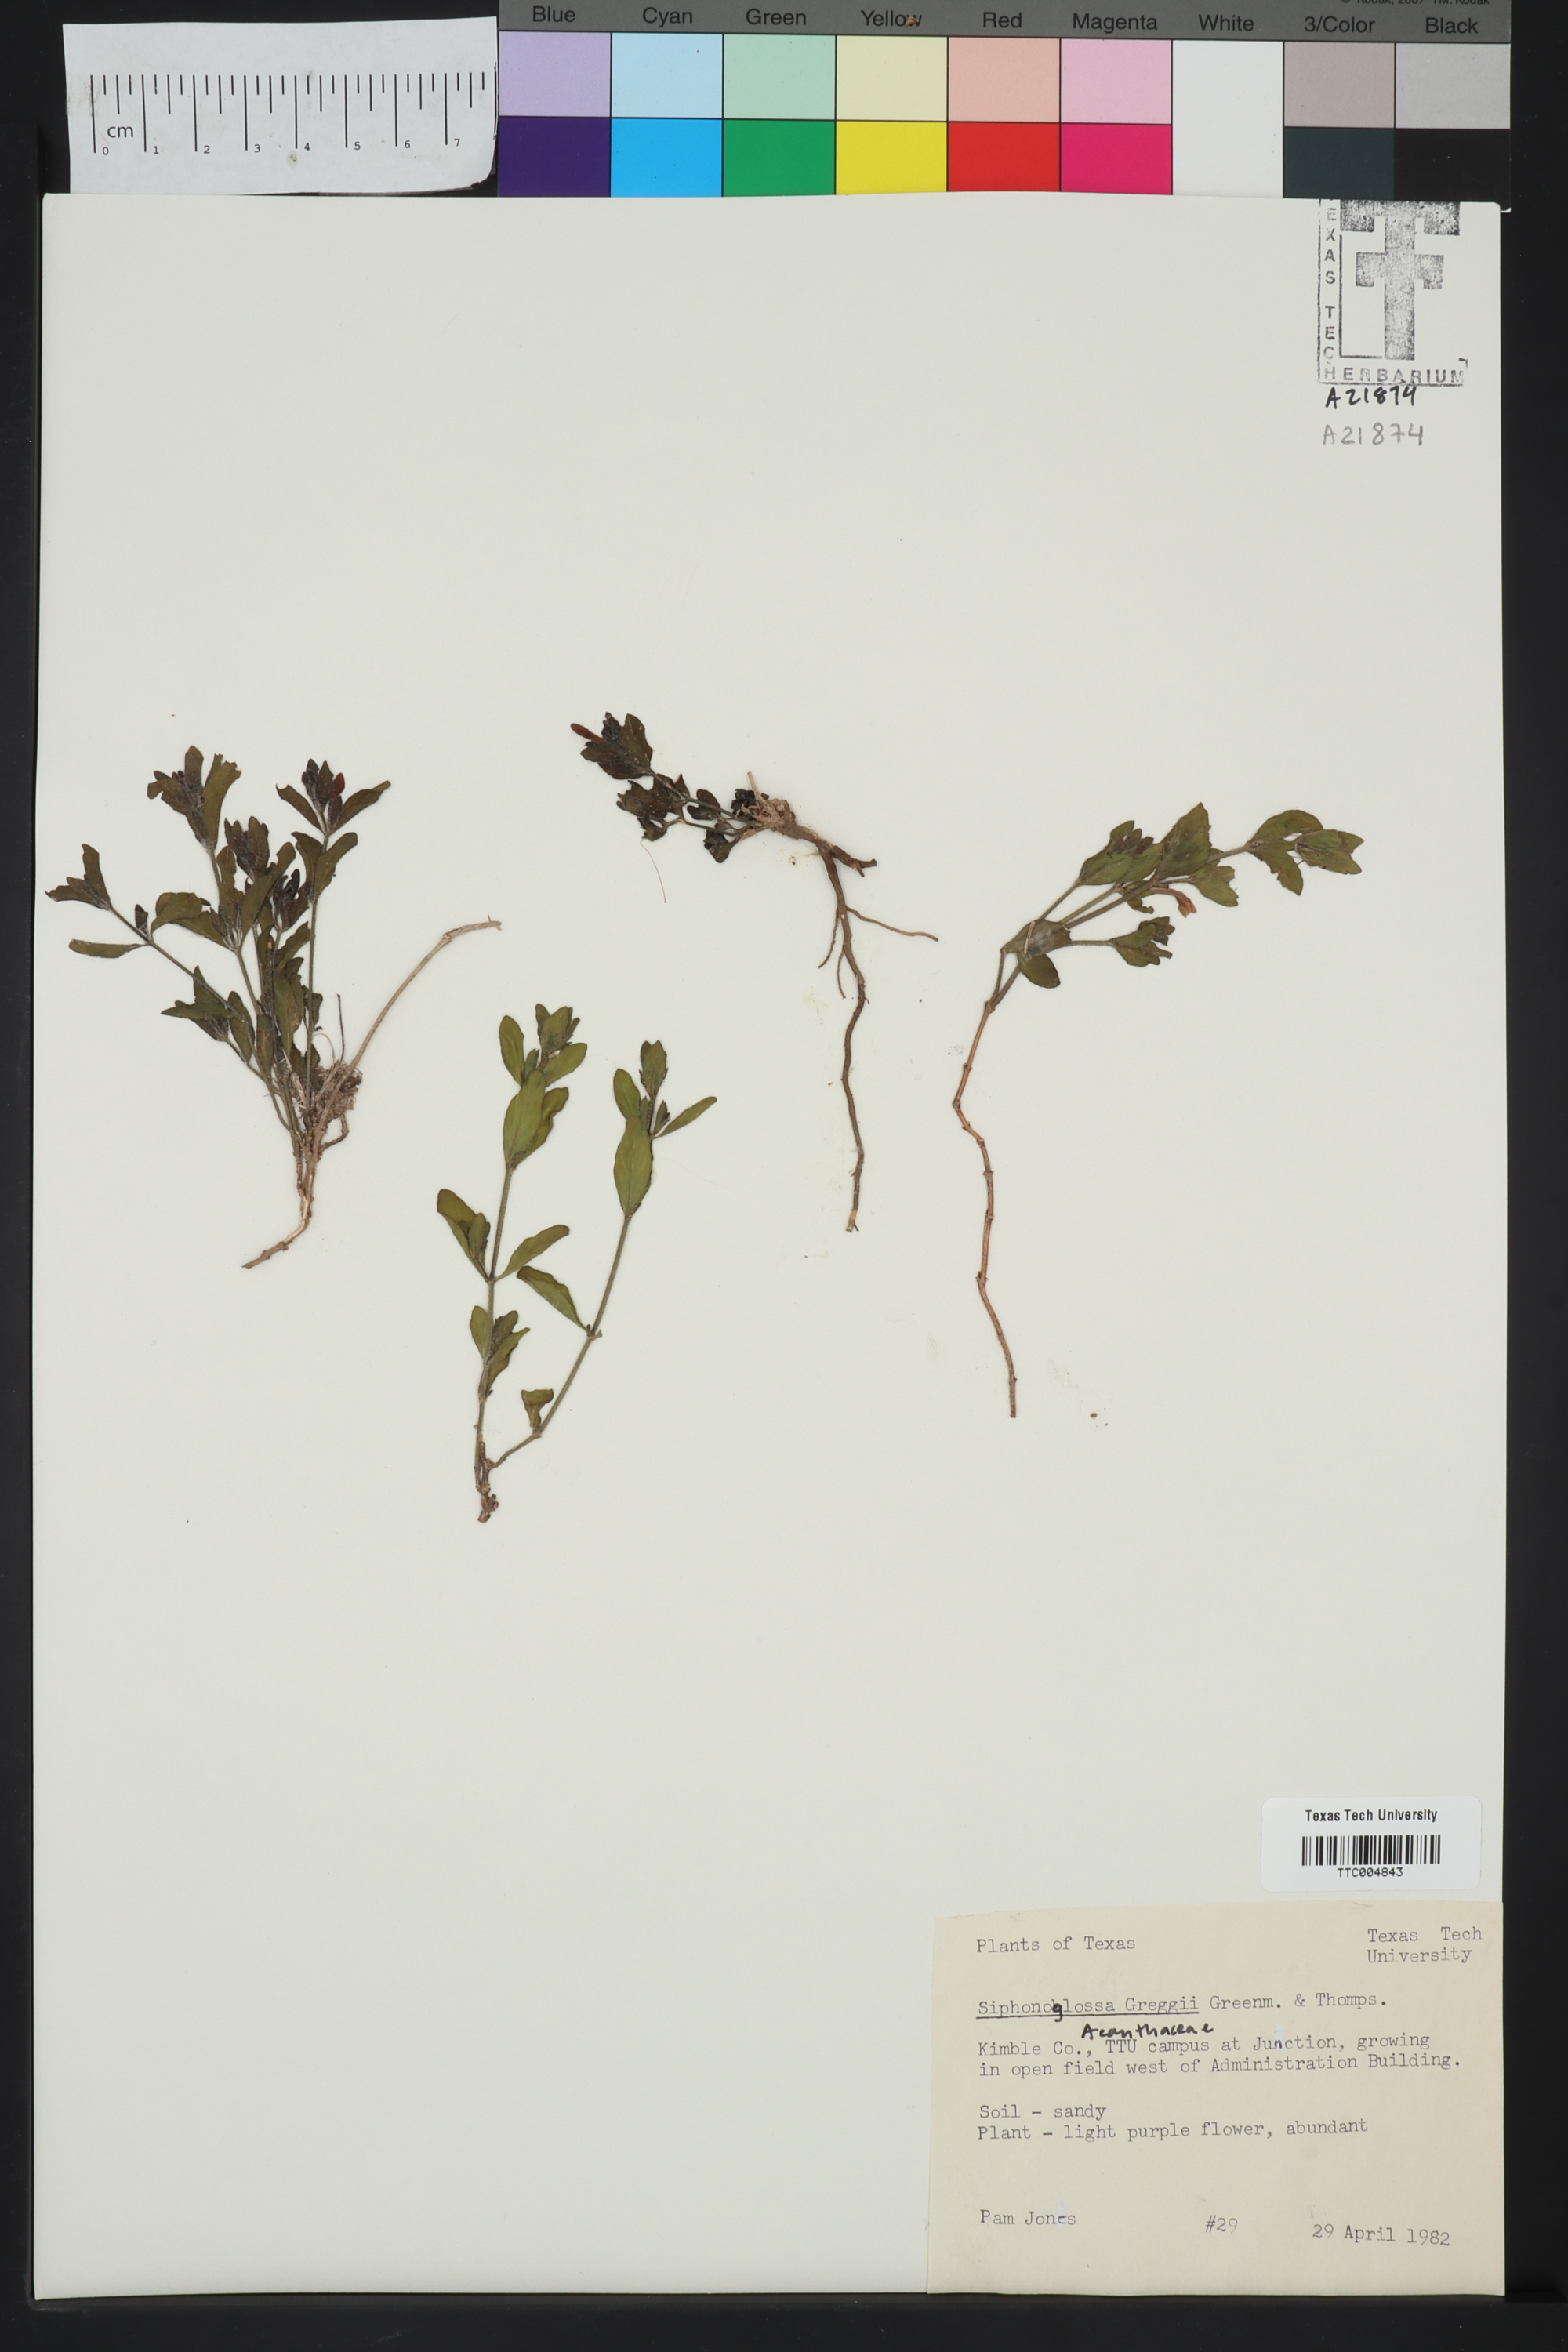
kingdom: Plantae
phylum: Tracheophyta
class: Magnoliopsida
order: Lamiales
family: Acanthaceae
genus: Justicia
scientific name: Justicia pilosella
